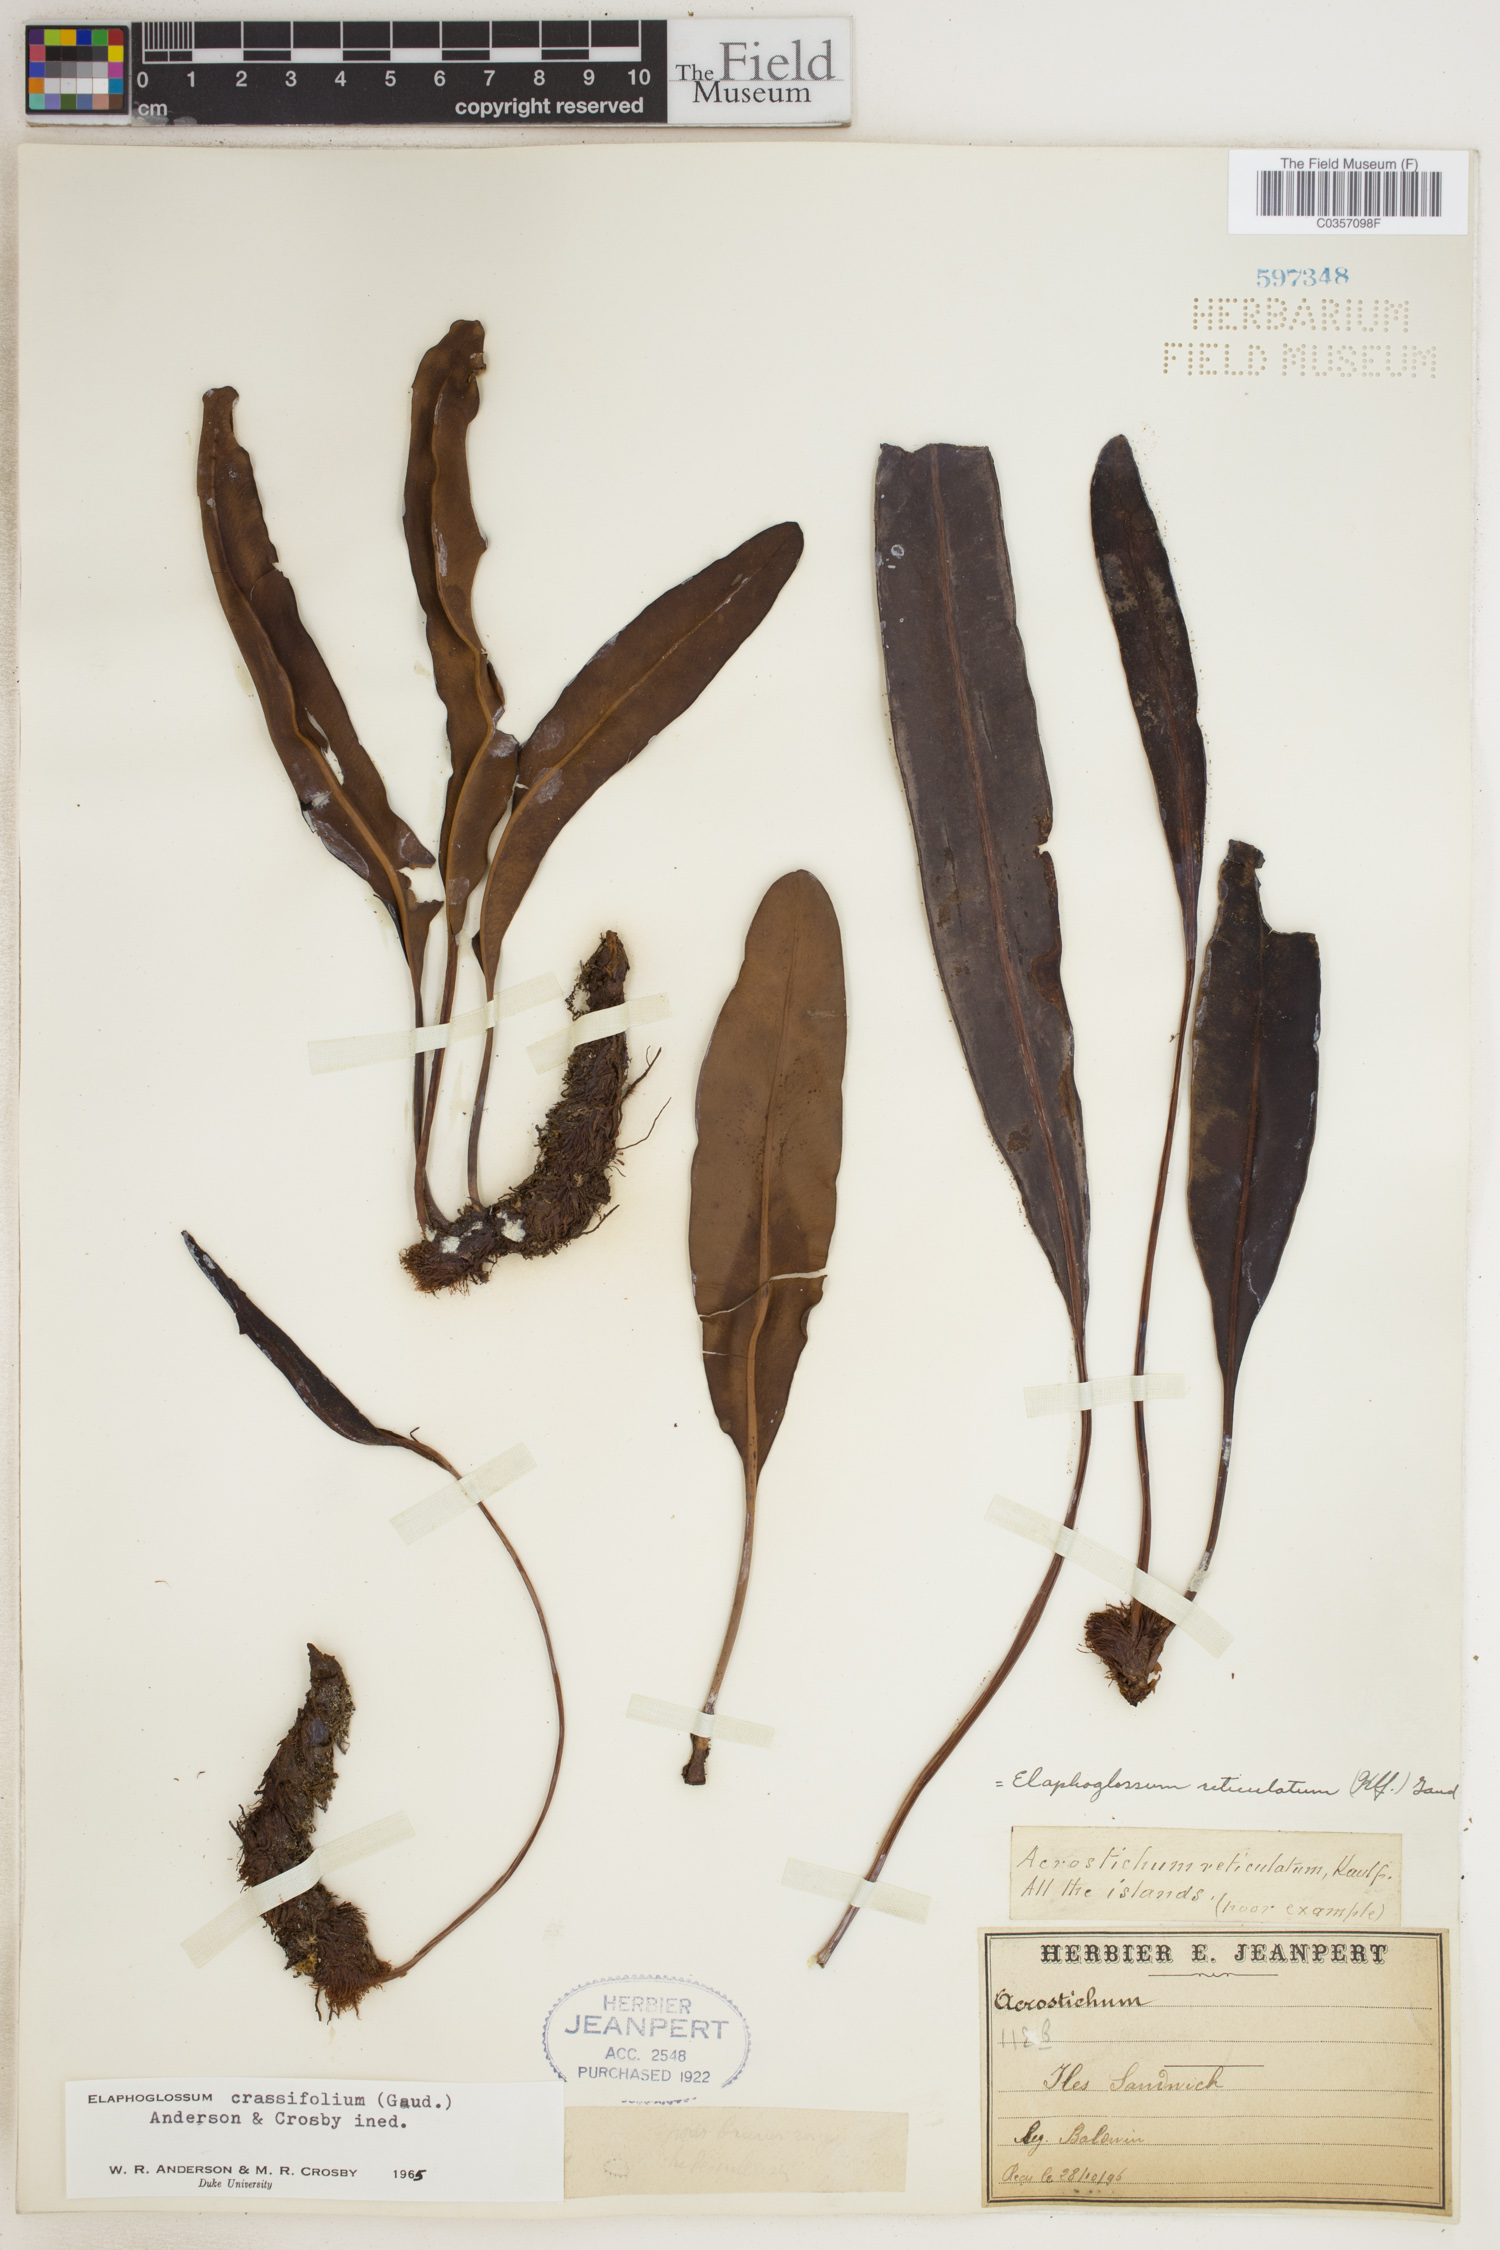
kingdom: Plantae
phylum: Tracheophyta
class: Polypodiopsida
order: Polypodiales
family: Dryopteridaceae
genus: Elaphoglossum
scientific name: Elaphoglossum crassifolium
